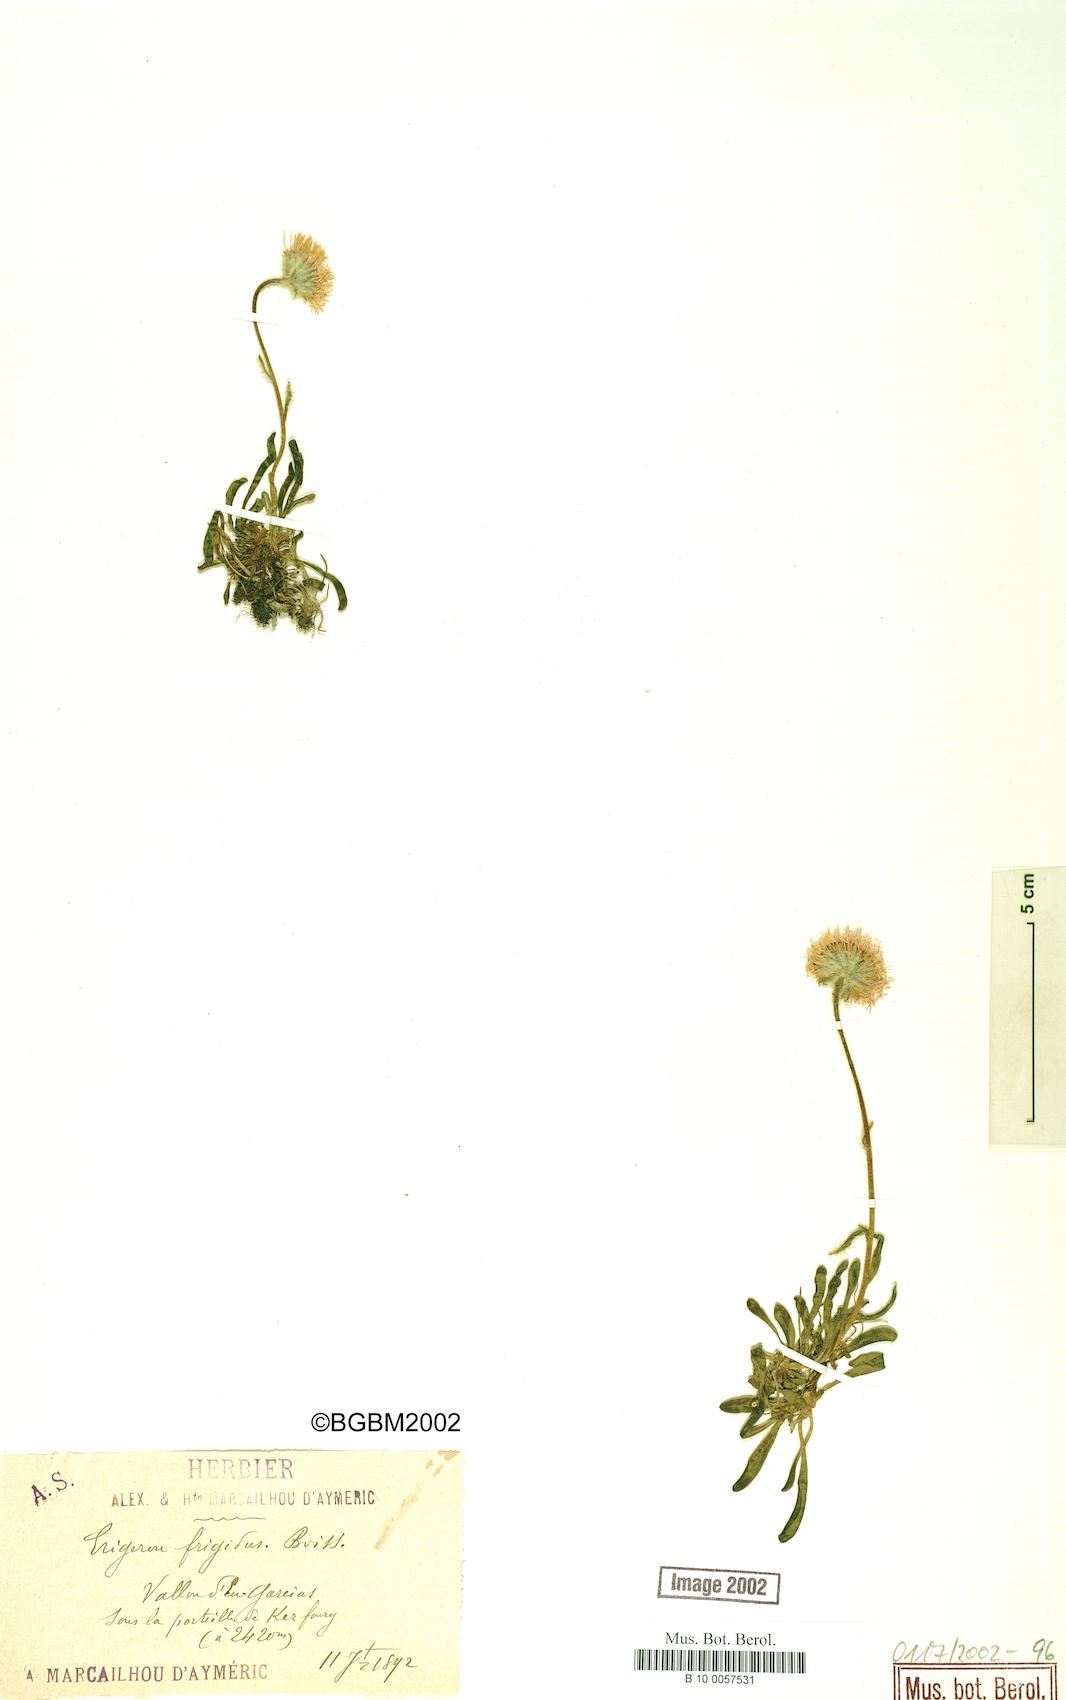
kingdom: Plantae
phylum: Tracheophyta
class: Magnoliopsida
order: Asterales
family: Asteraceae
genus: Erigeron
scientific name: Erigeron aragonensis
